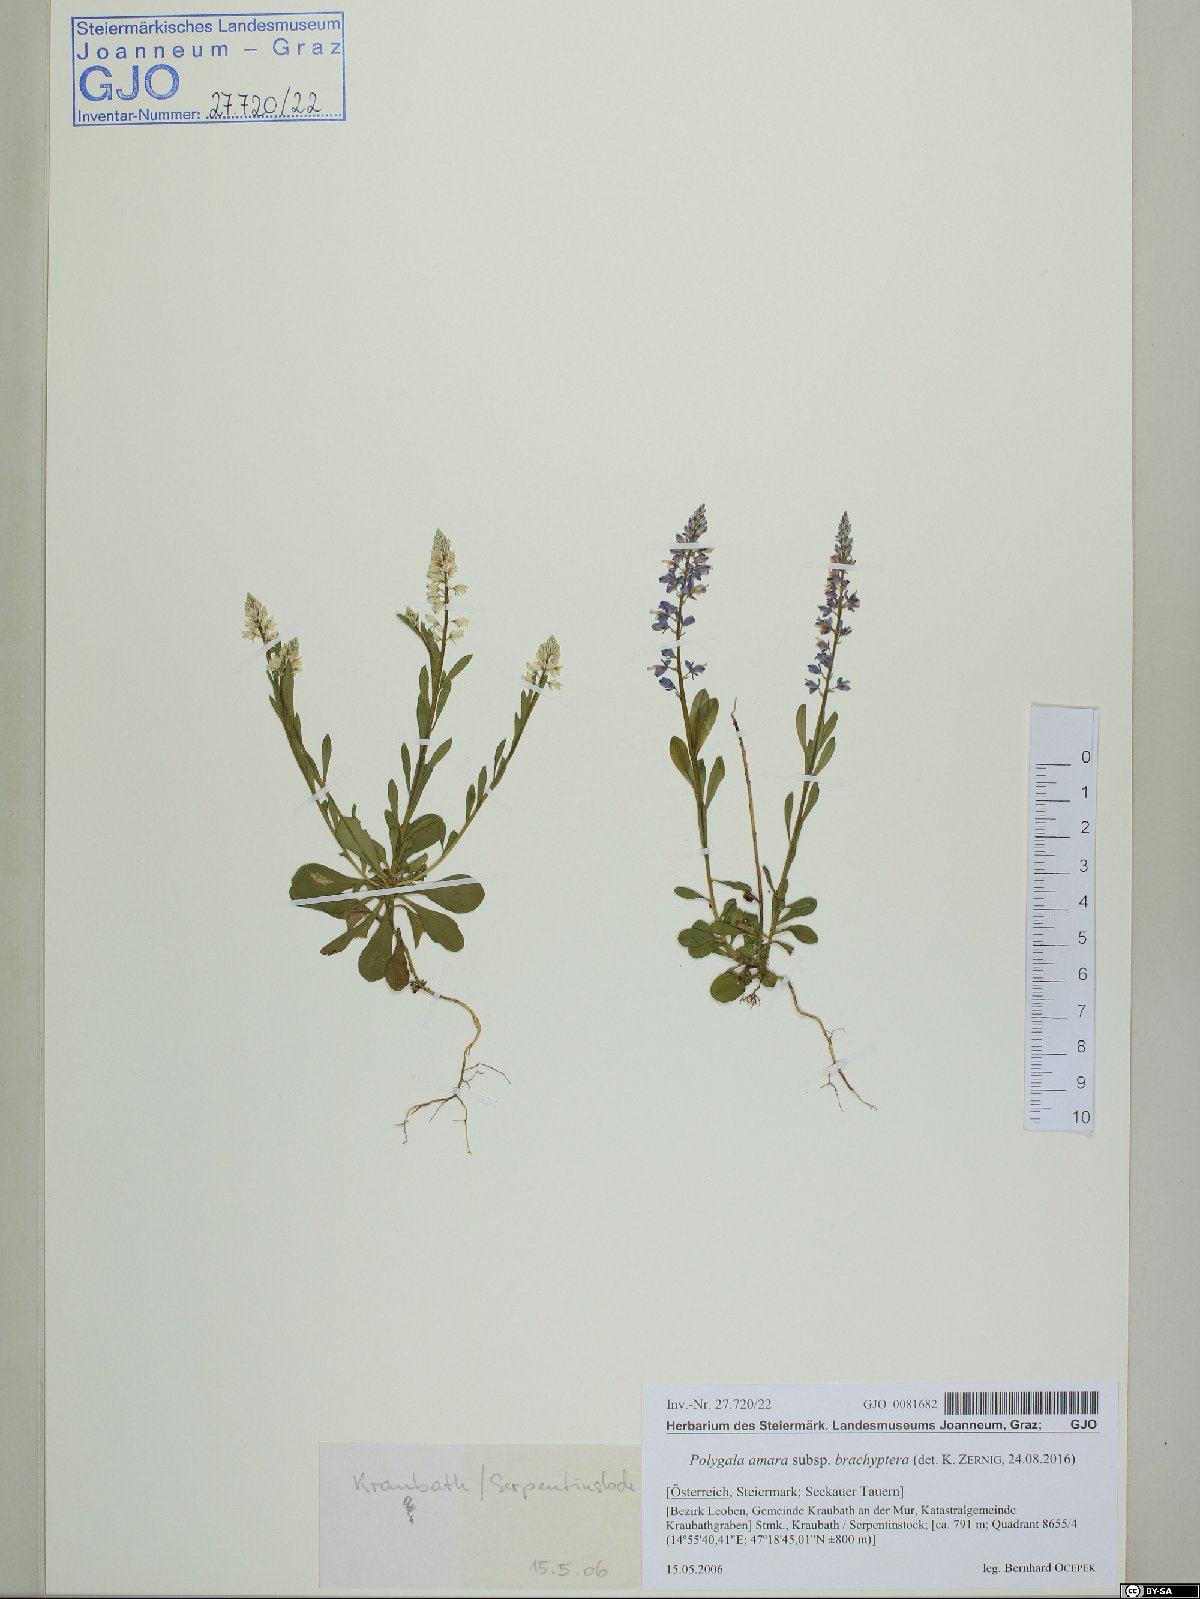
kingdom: Plantae
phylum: Tracheophyta
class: Magnoliopsida
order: Fabales
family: Polygalaceae
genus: Polygala
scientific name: Polygala amara
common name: Milkwort
